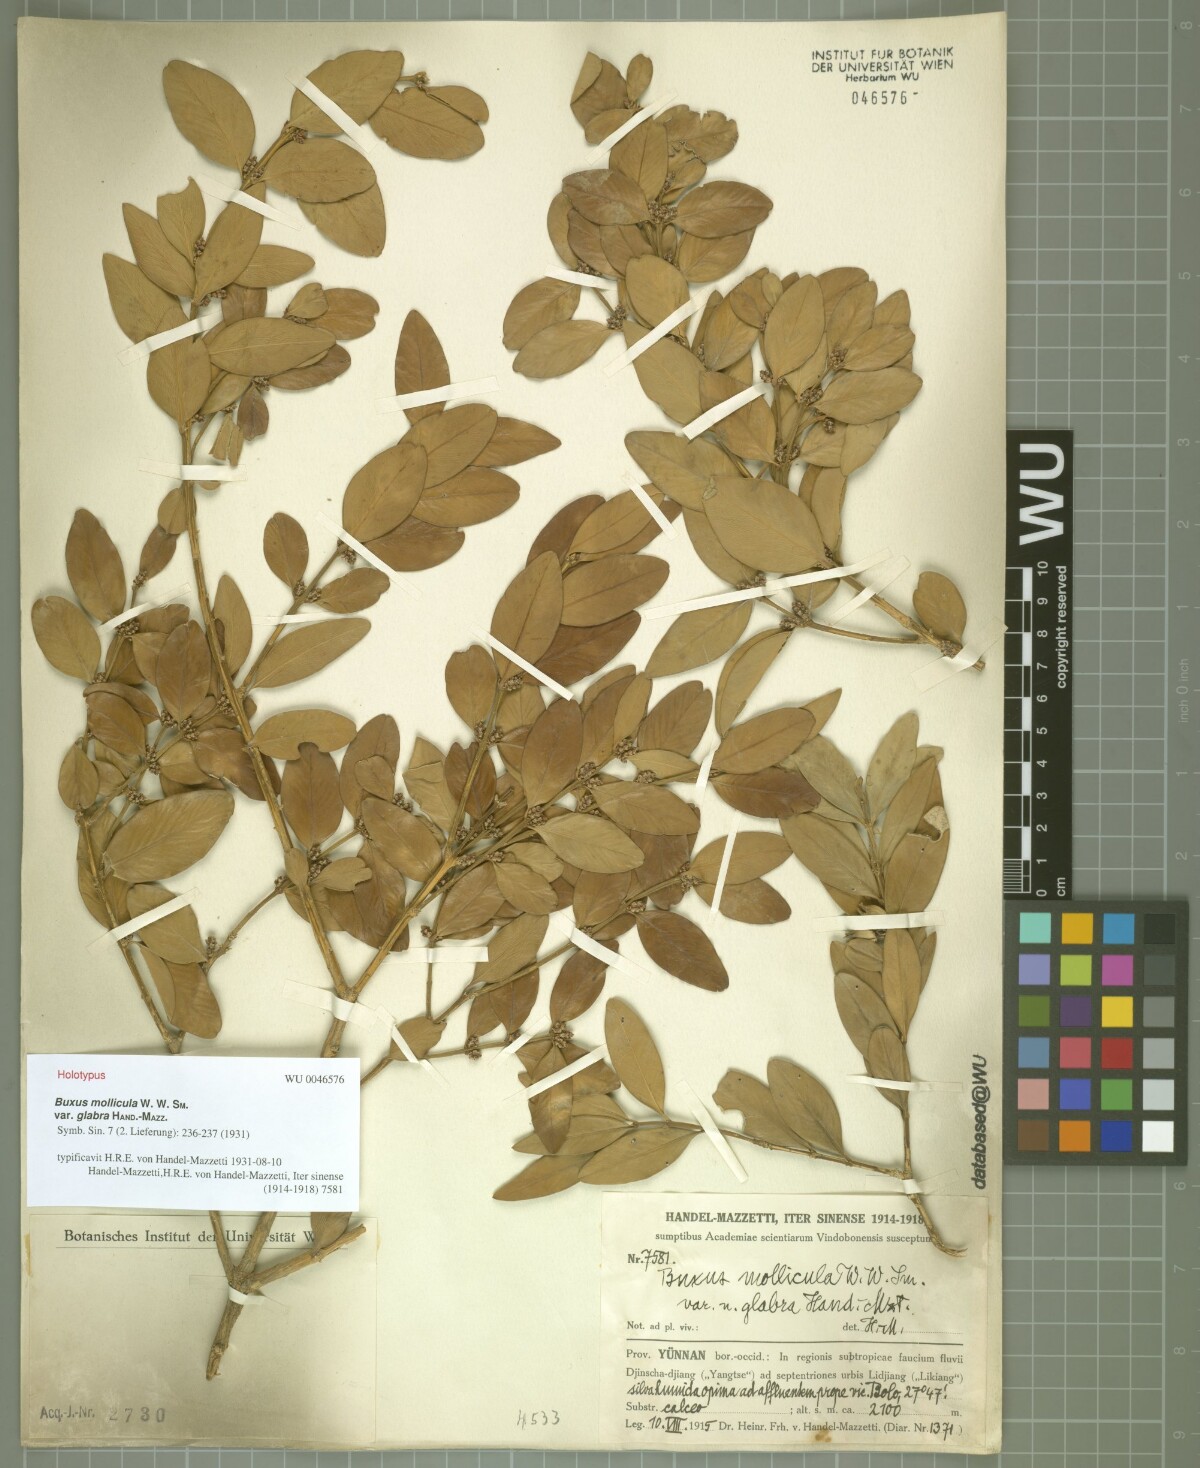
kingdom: Plantae
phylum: Tracheophyta
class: Magnoliopsida
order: Buxales
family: Buxaceae
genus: Buxus
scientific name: Buxus mollicula
